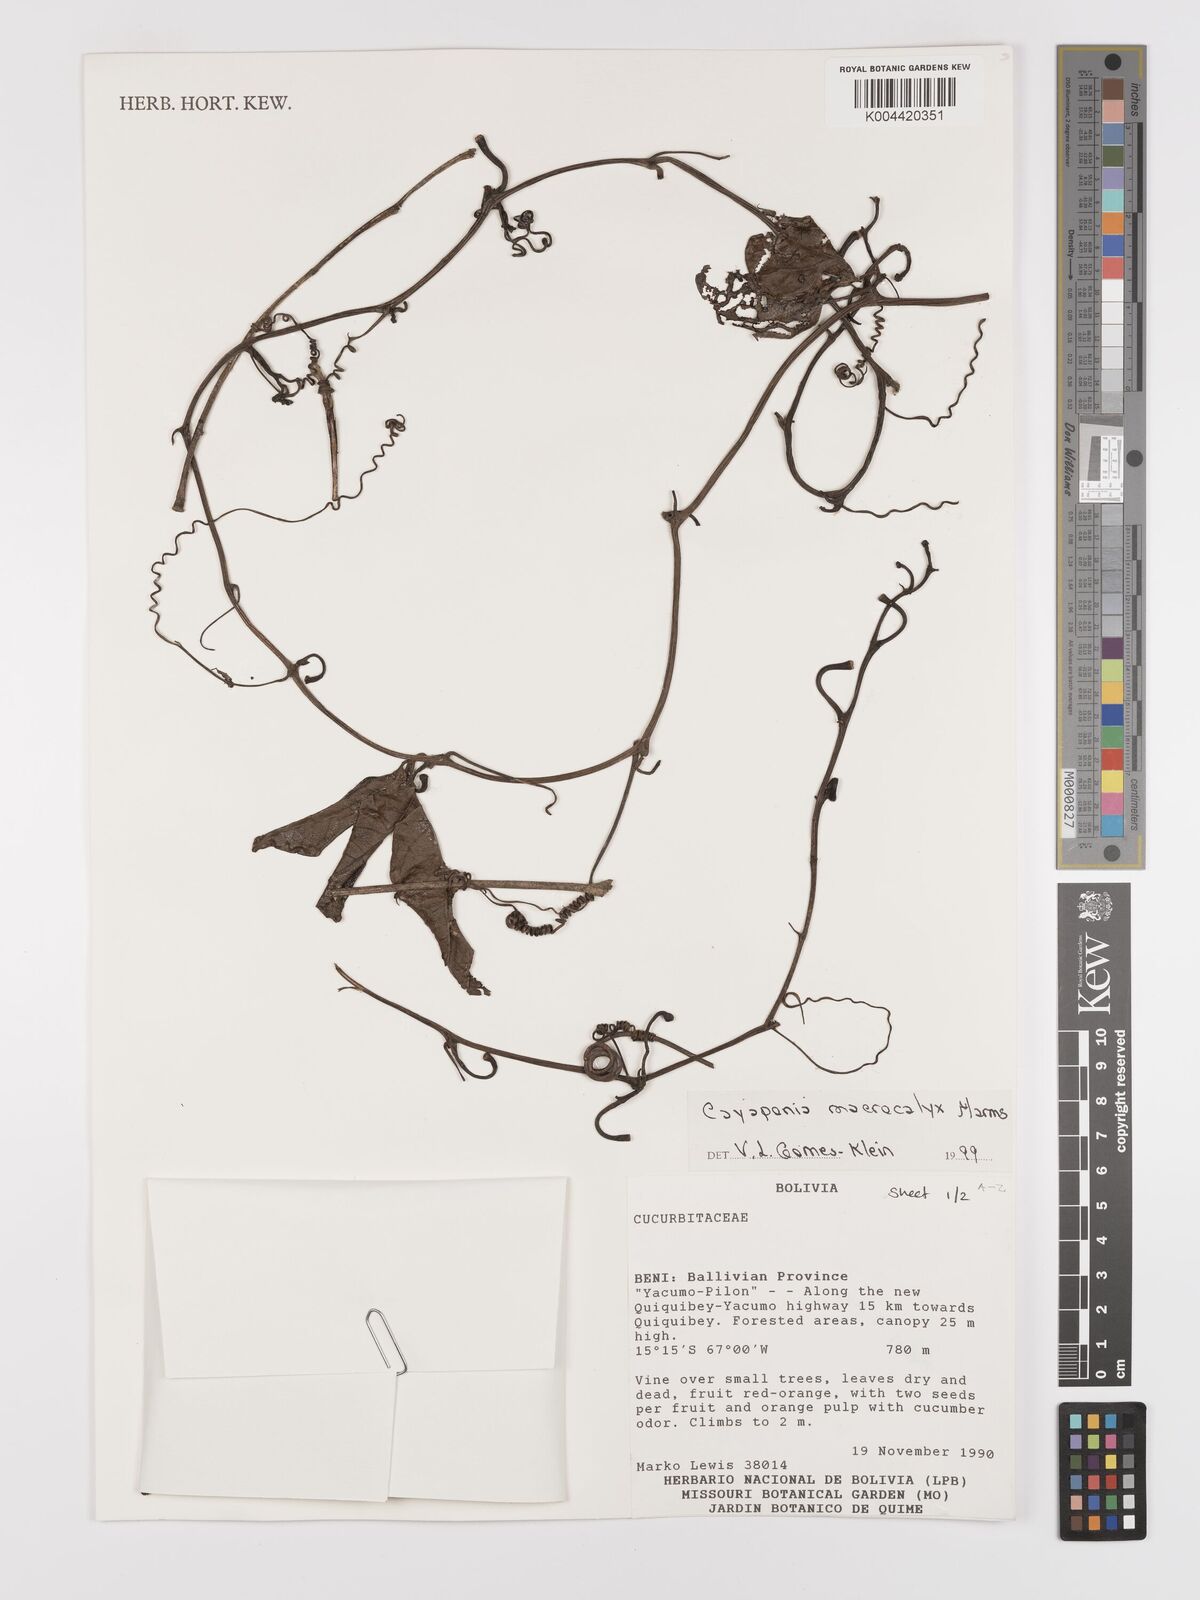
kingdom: Plantae
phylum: Tracheophyta
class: Magnoliopsida
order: Cucurbitales
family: Cucurbitaceae
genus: Cayaponia
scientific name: Cayaponia macrocalyx
